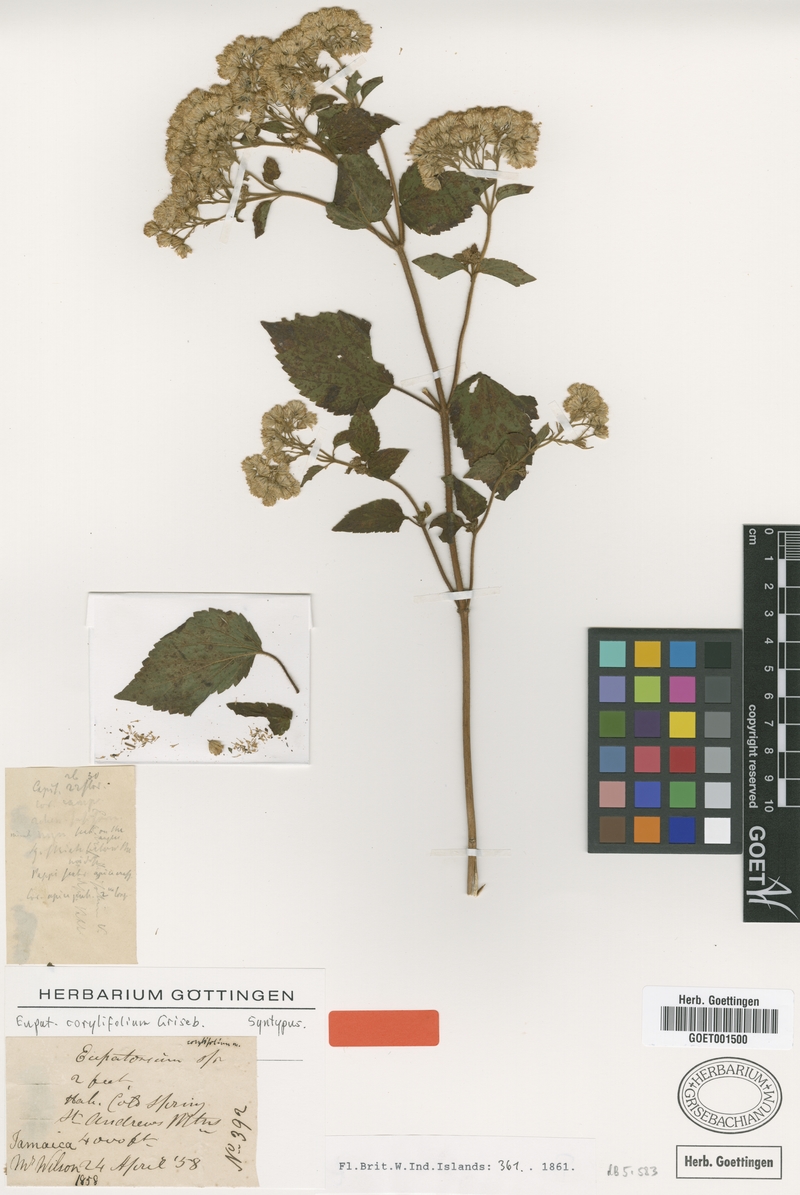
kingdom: Plantae
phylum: Tracheophyta
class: Magnoliopsida
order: Asterales
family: Asteraceae
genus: Ageratina
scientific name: Ageratina corylifolia
